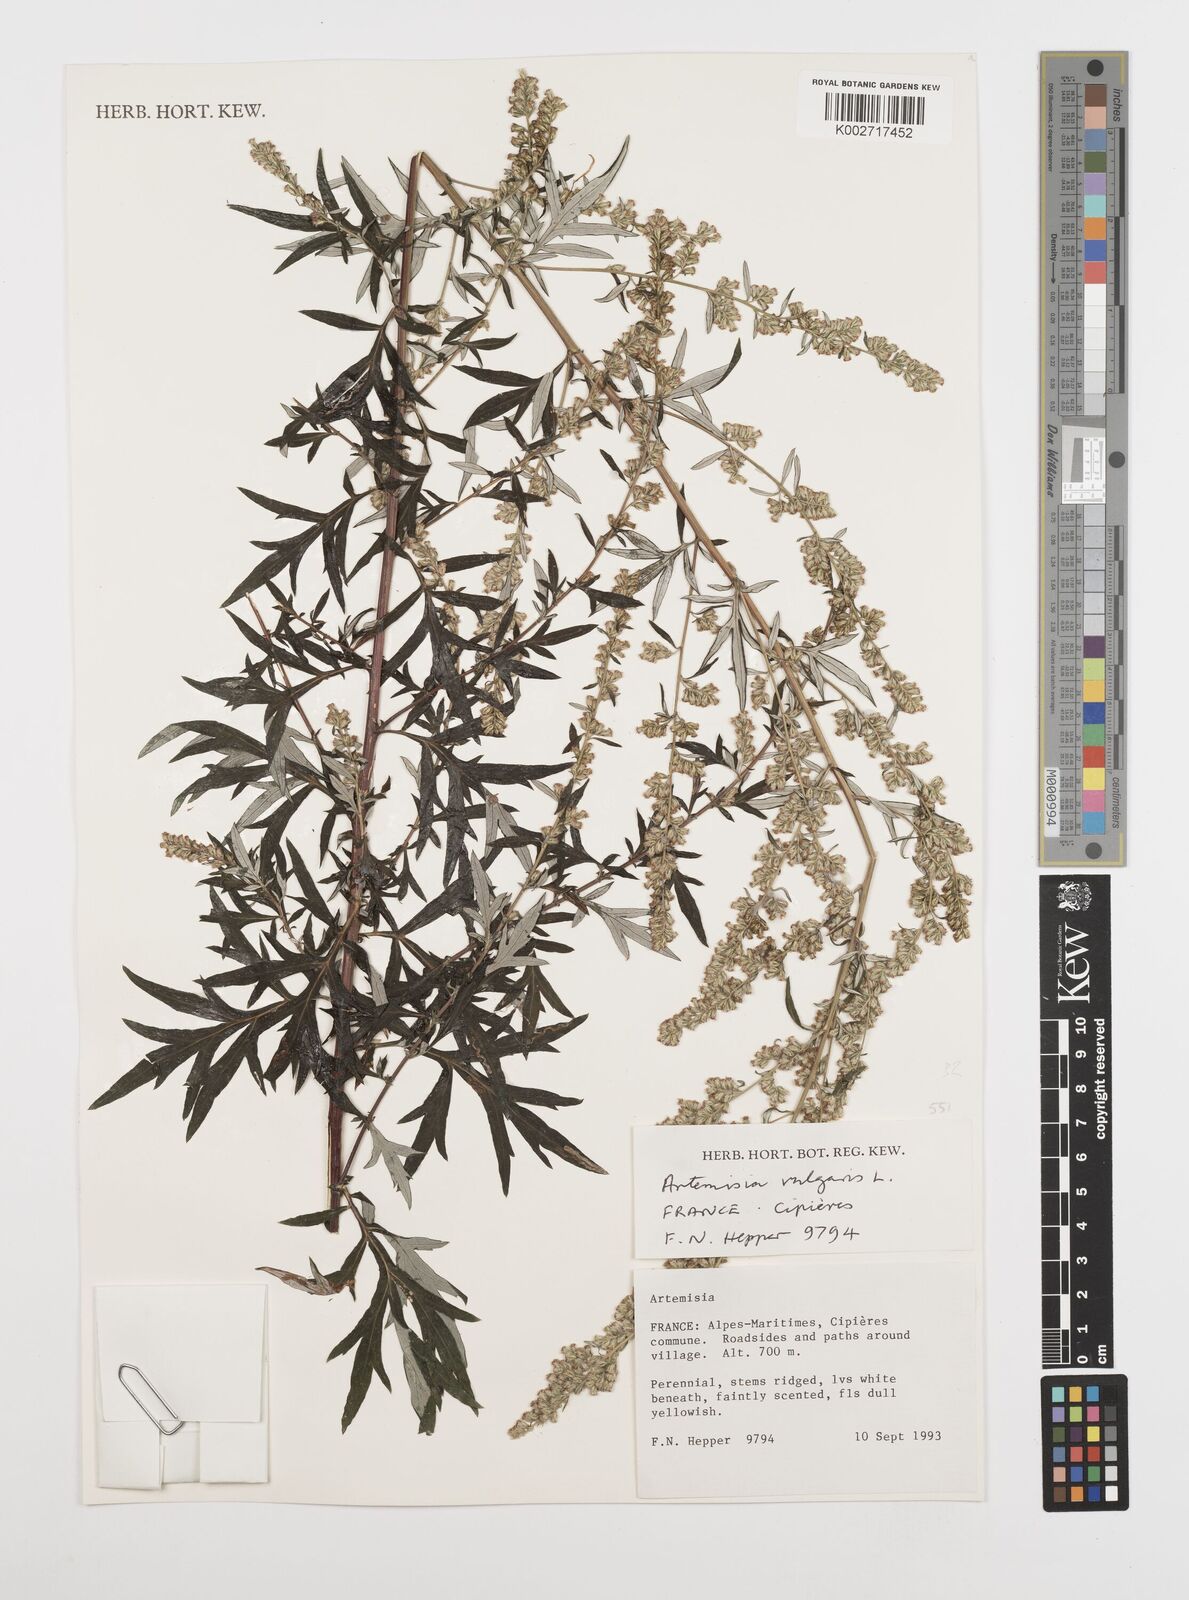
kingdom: Plantae
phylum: Tracheophyta
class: Magnoliopsida
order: Asterales
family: Asteraceae
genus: Artemisia
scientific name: Artemisia vulgaris
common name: Mugwort
